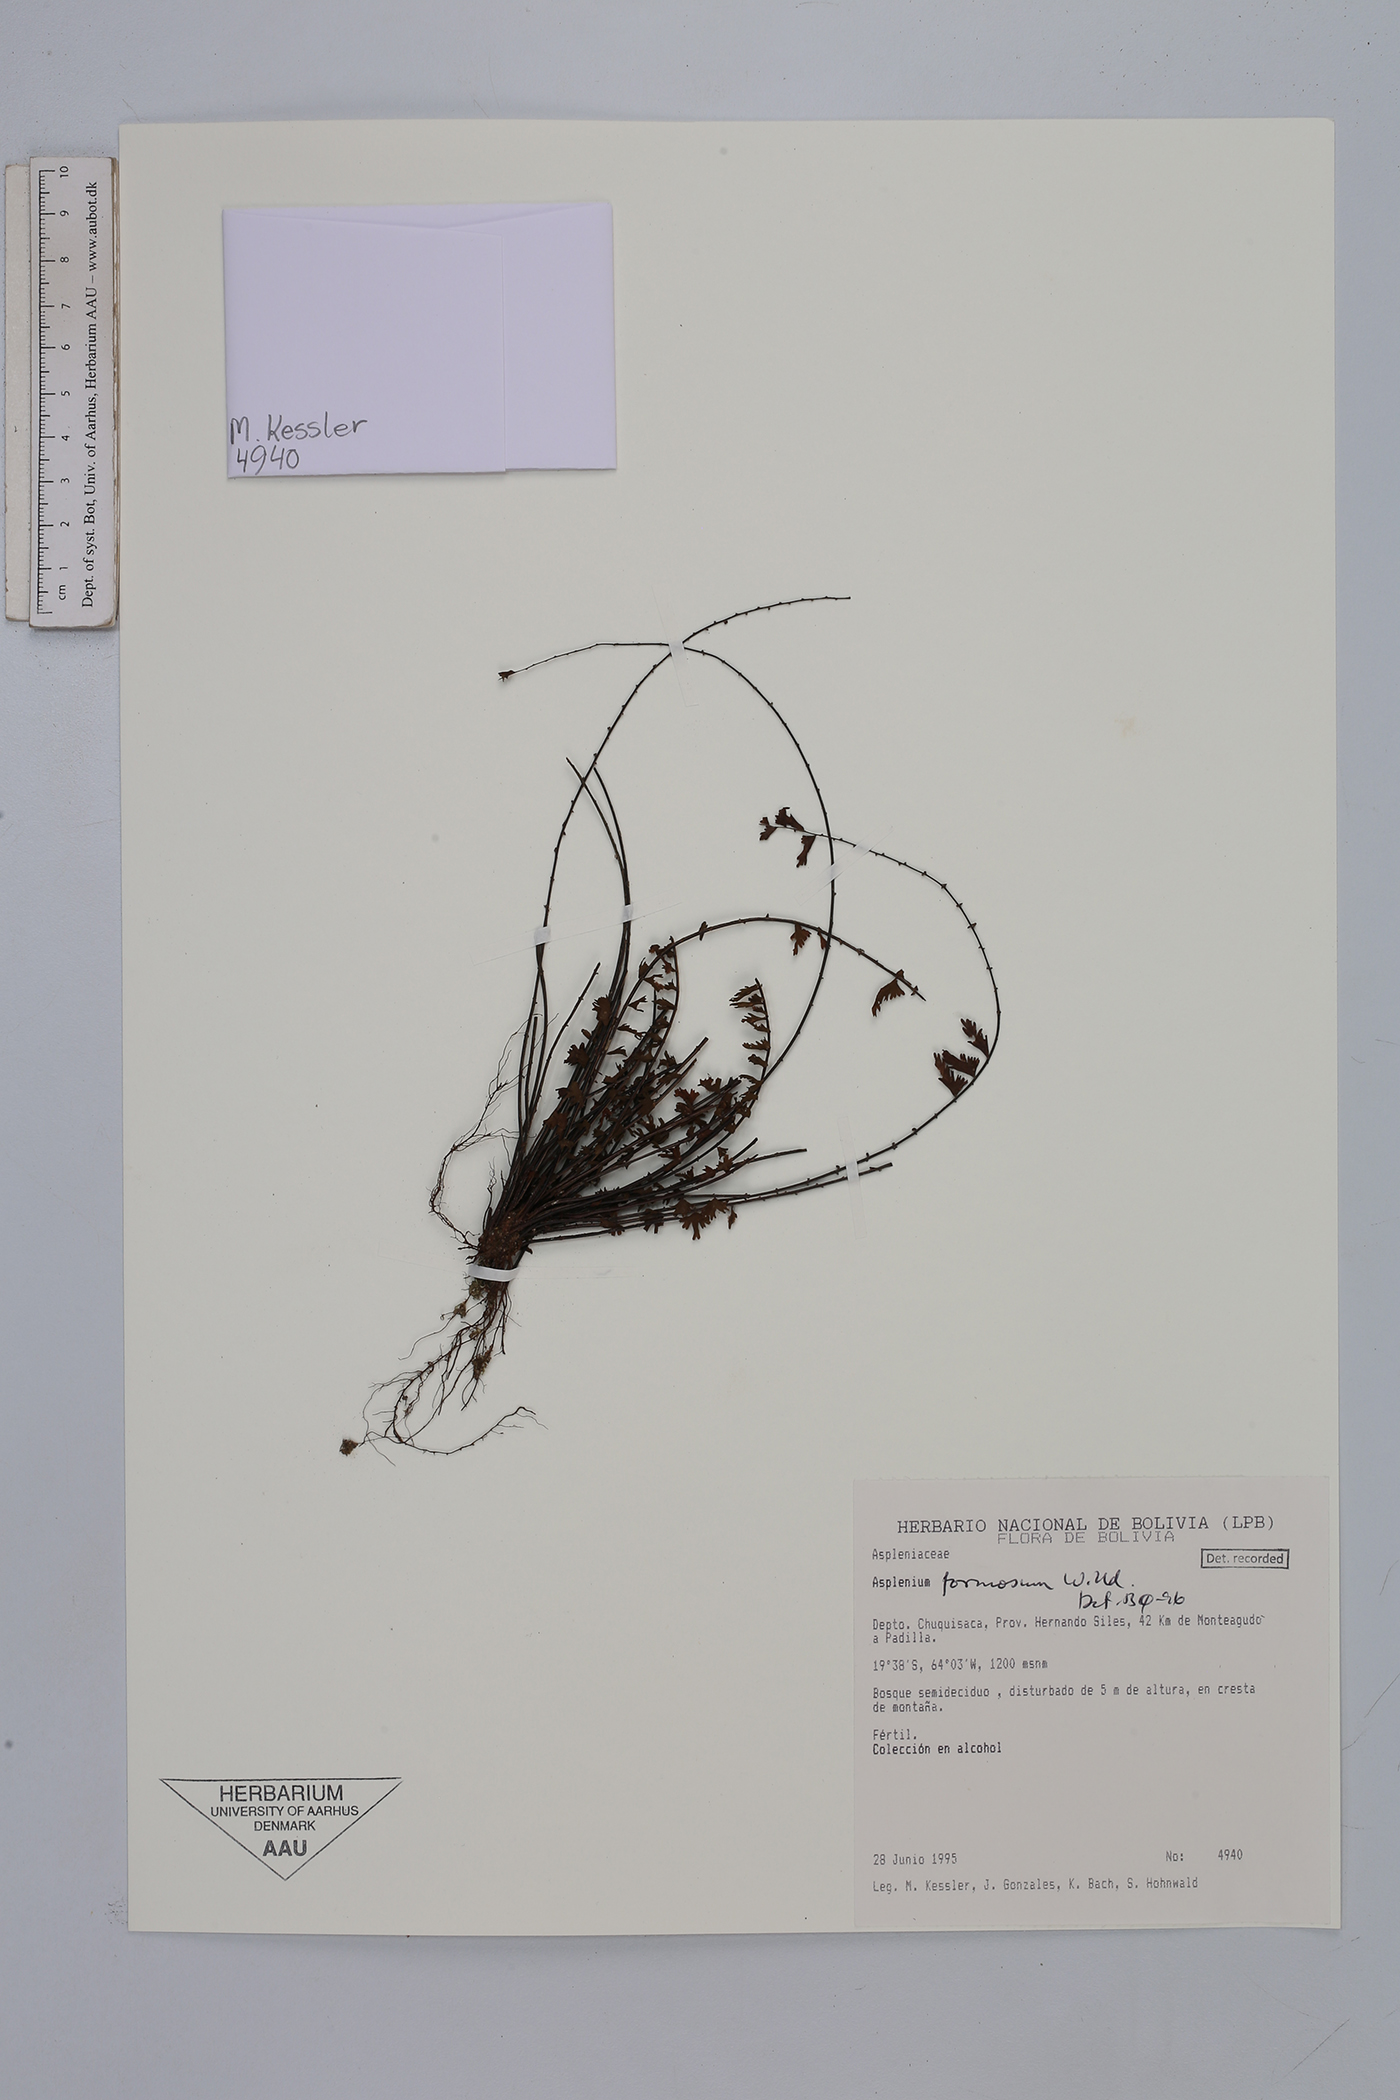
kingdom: Plantae
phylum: Tracheophyta
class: Polypodiopsida
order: Polypodiales
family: Aspleniaceae
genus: Asplenium
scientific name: Asplenium formosum
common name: Showy spleenwort
